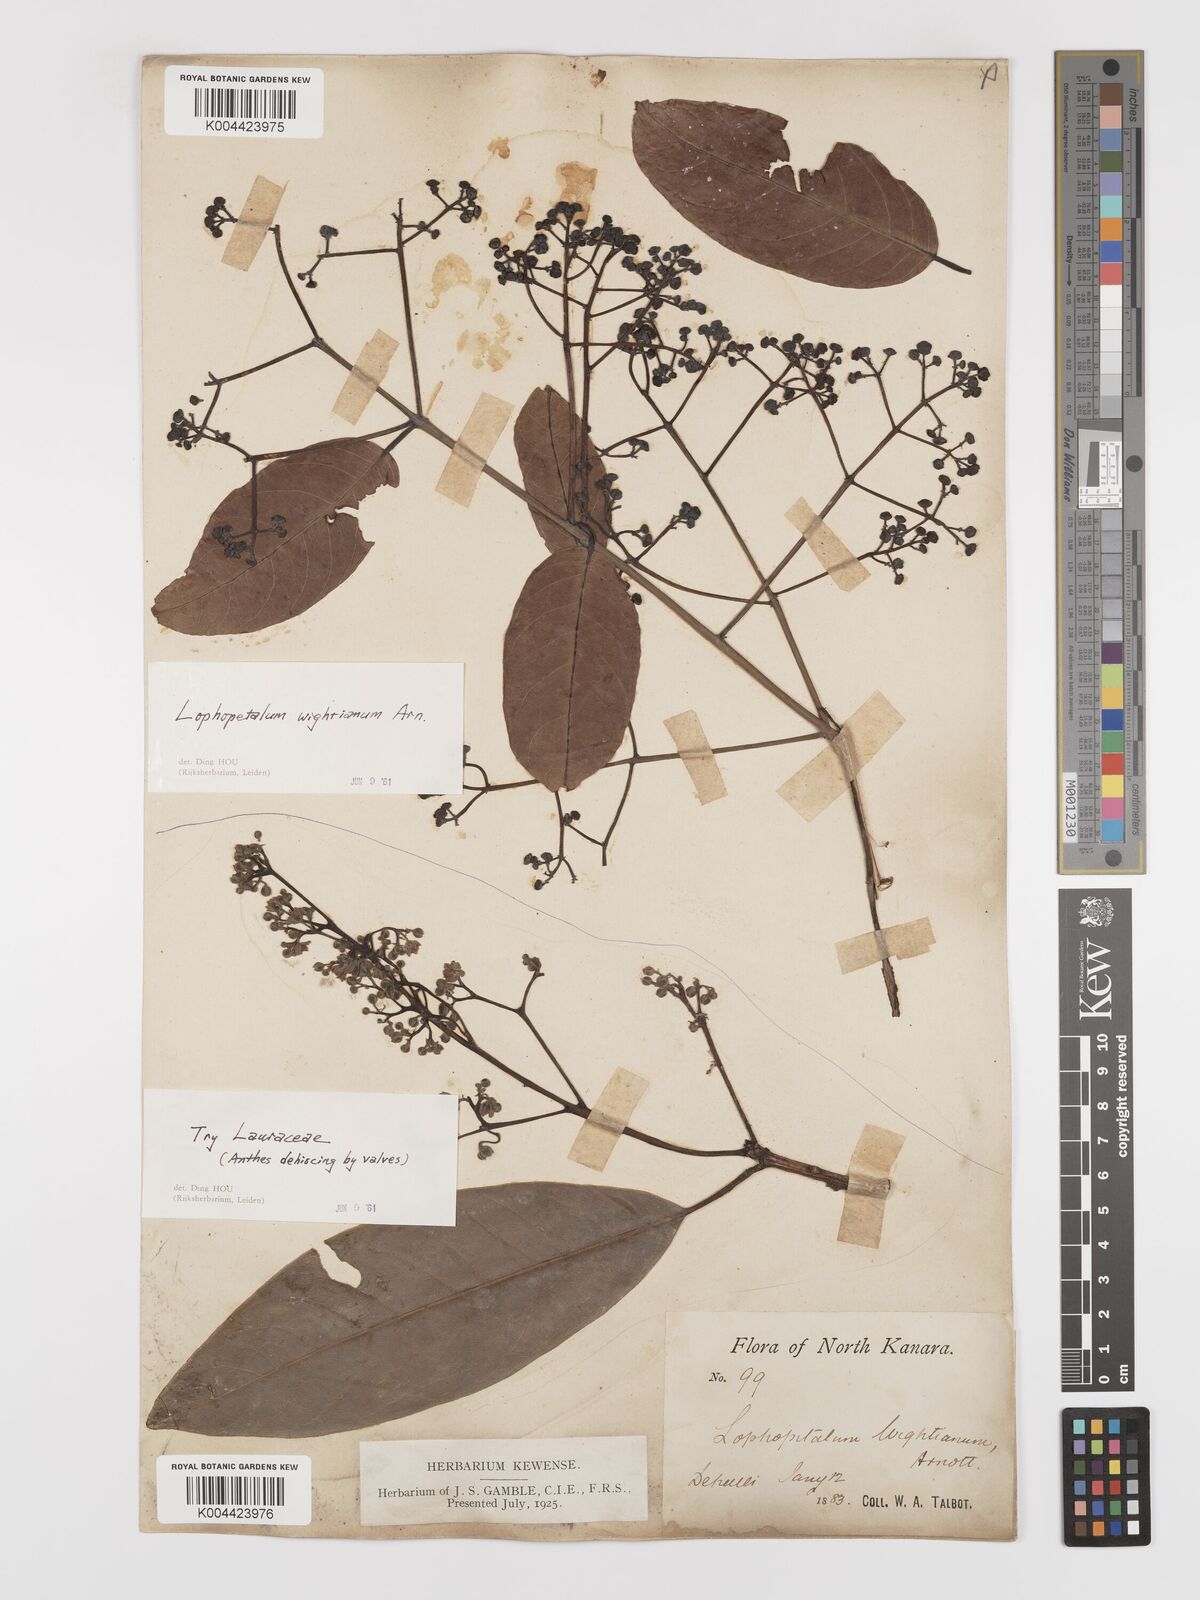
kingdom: Plantae
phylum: Tracheophyta
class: Magnoliopsida
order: Celastrales
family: Celastraceae
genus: Lophopetalum
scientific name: Lophopetalum wightianum
